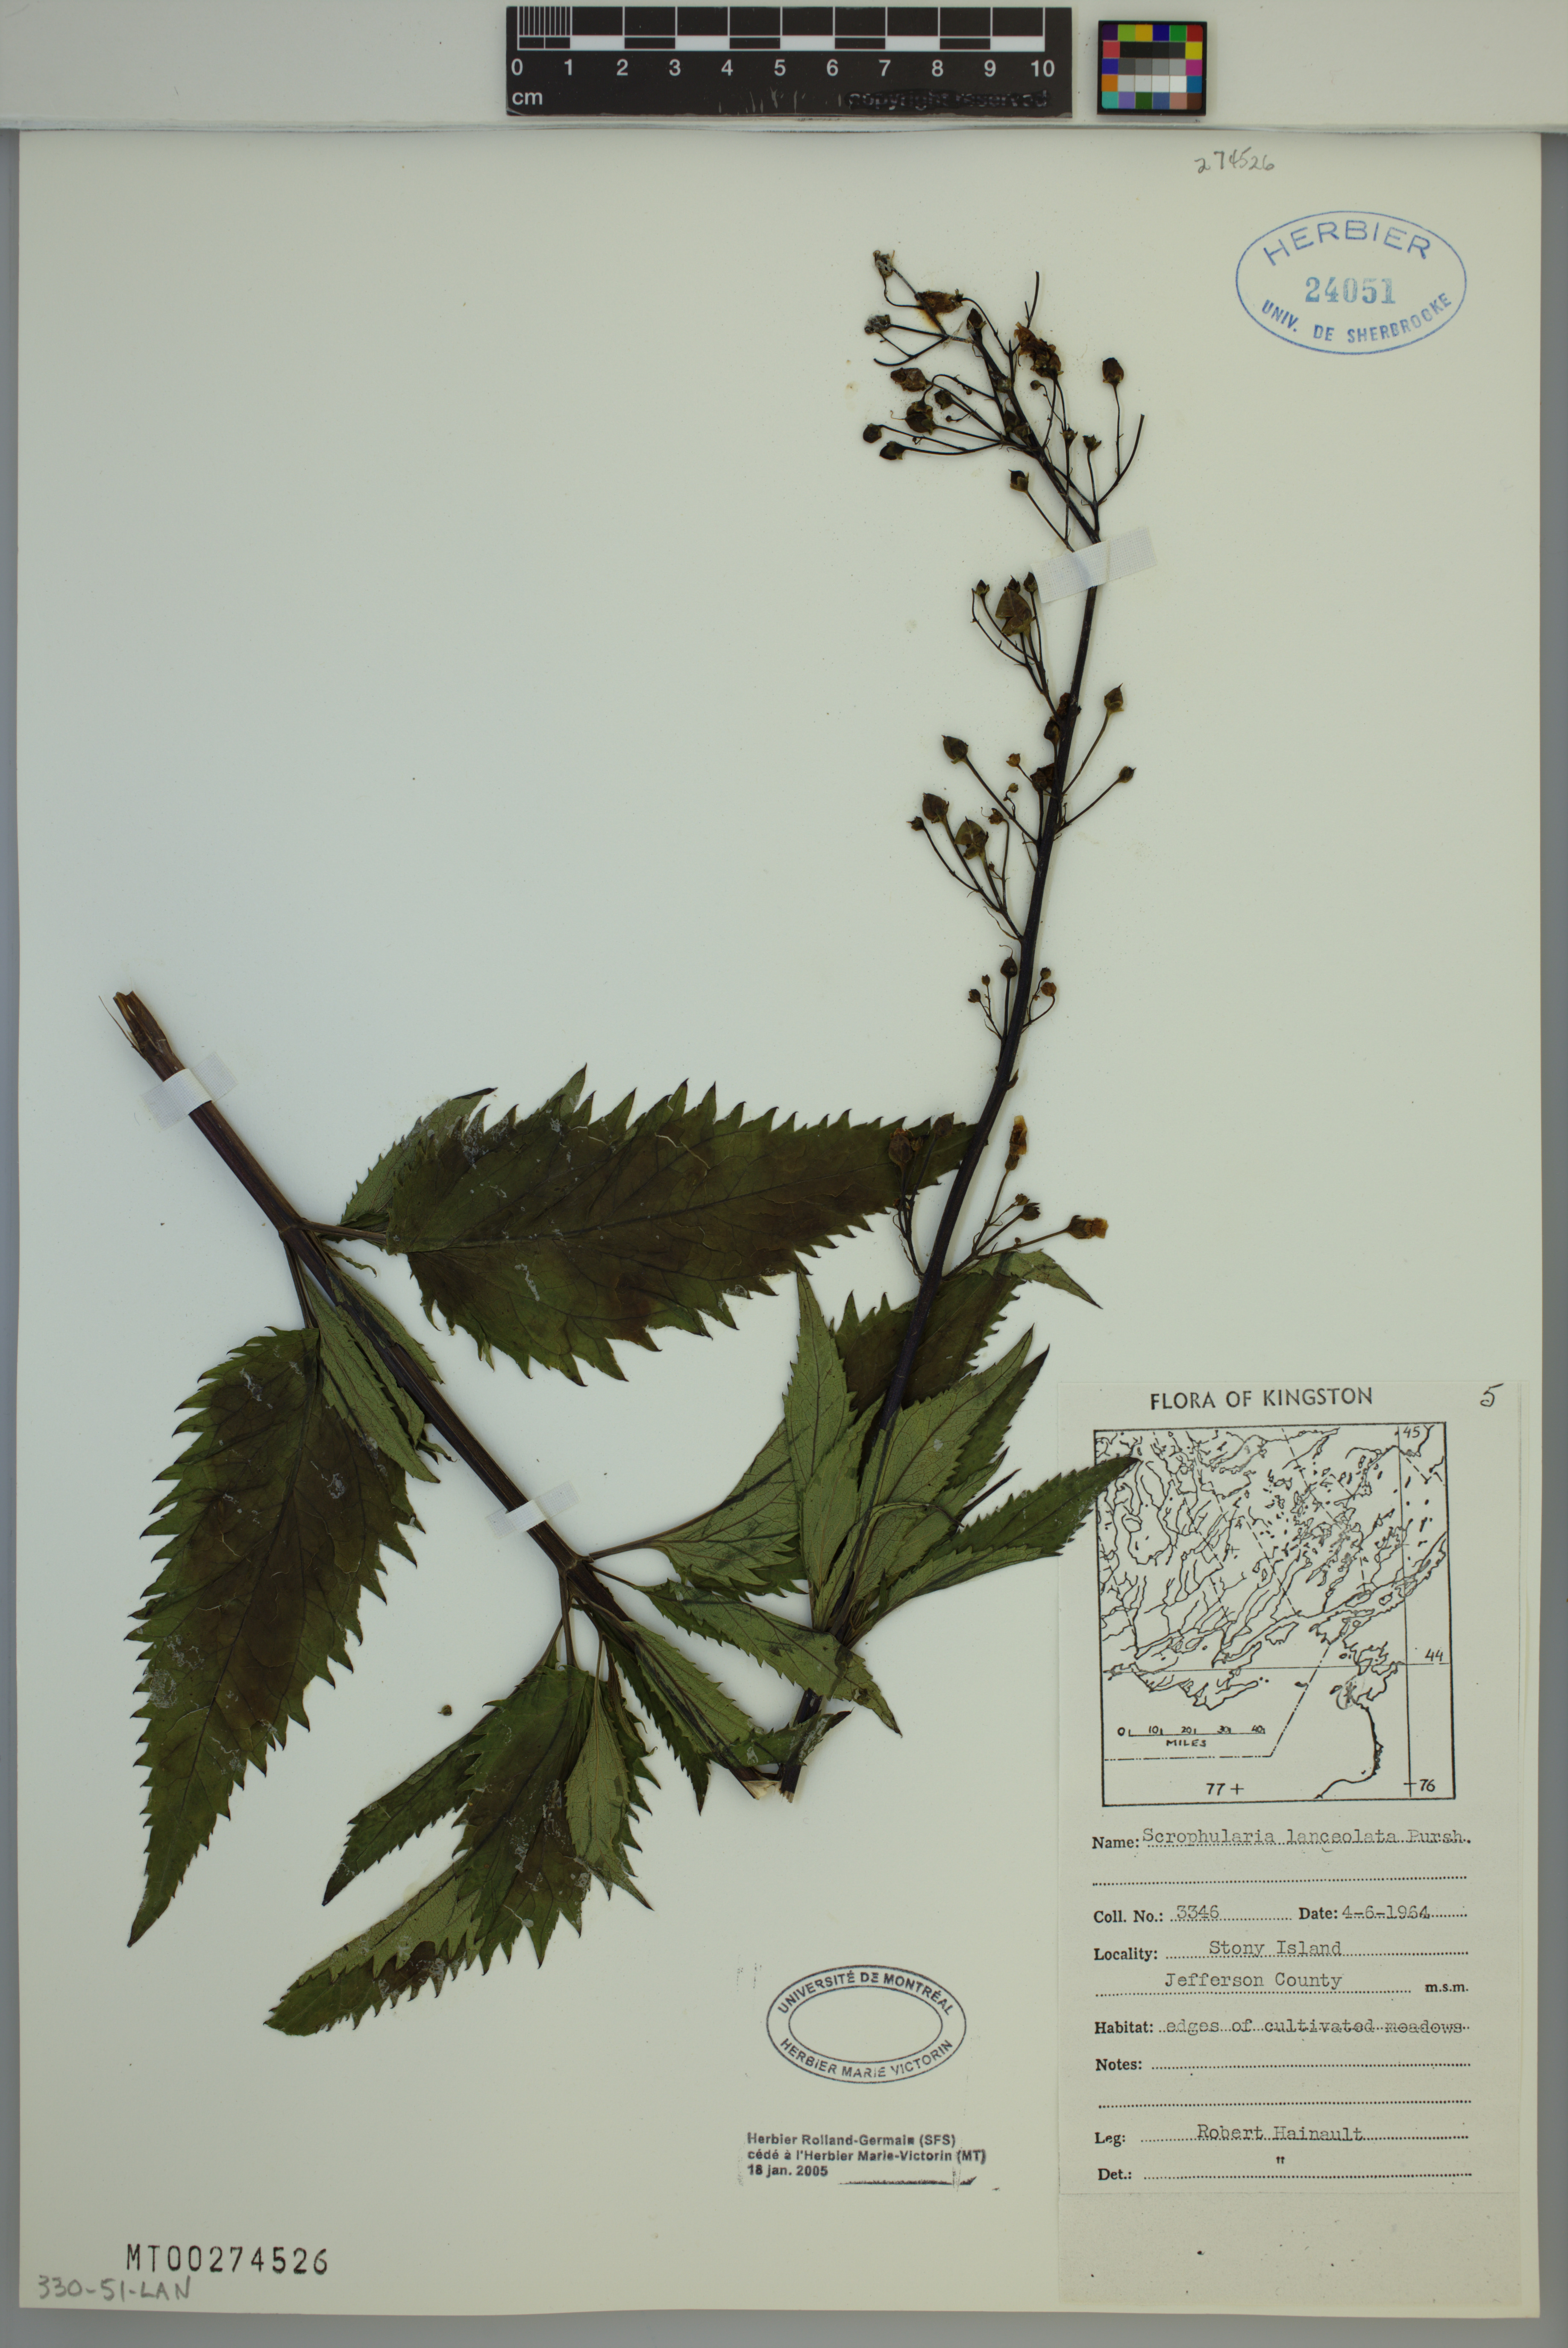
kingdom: Plantae
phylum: Tracheophyta
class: Magnoliopsida
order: Lamiales
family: Scrophulariaceae
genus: Scrophularia
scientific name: Scrophularia lanceolata
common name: American figwort
